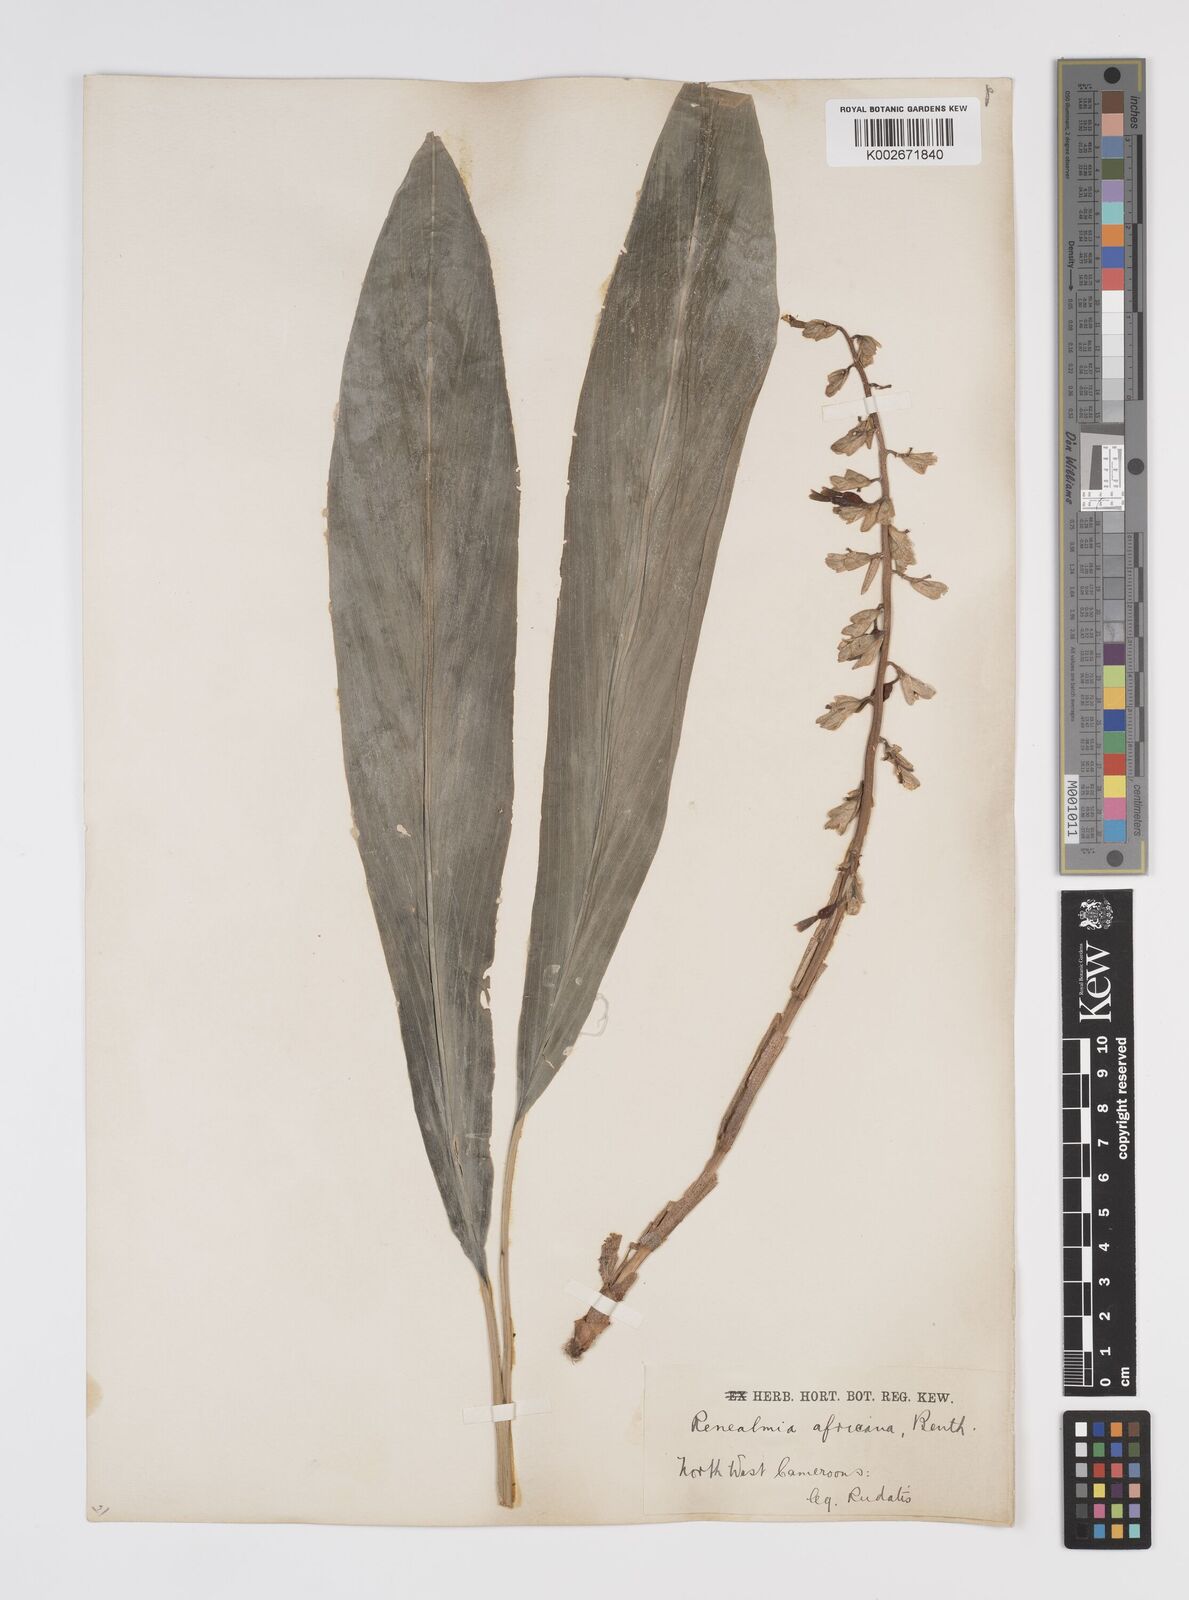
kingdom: Plantae
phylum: Tracheophyta
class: Liliopsida
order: Zingiberales
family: Zingiberaceae
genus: Renealmia
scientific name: Renealmia africana
